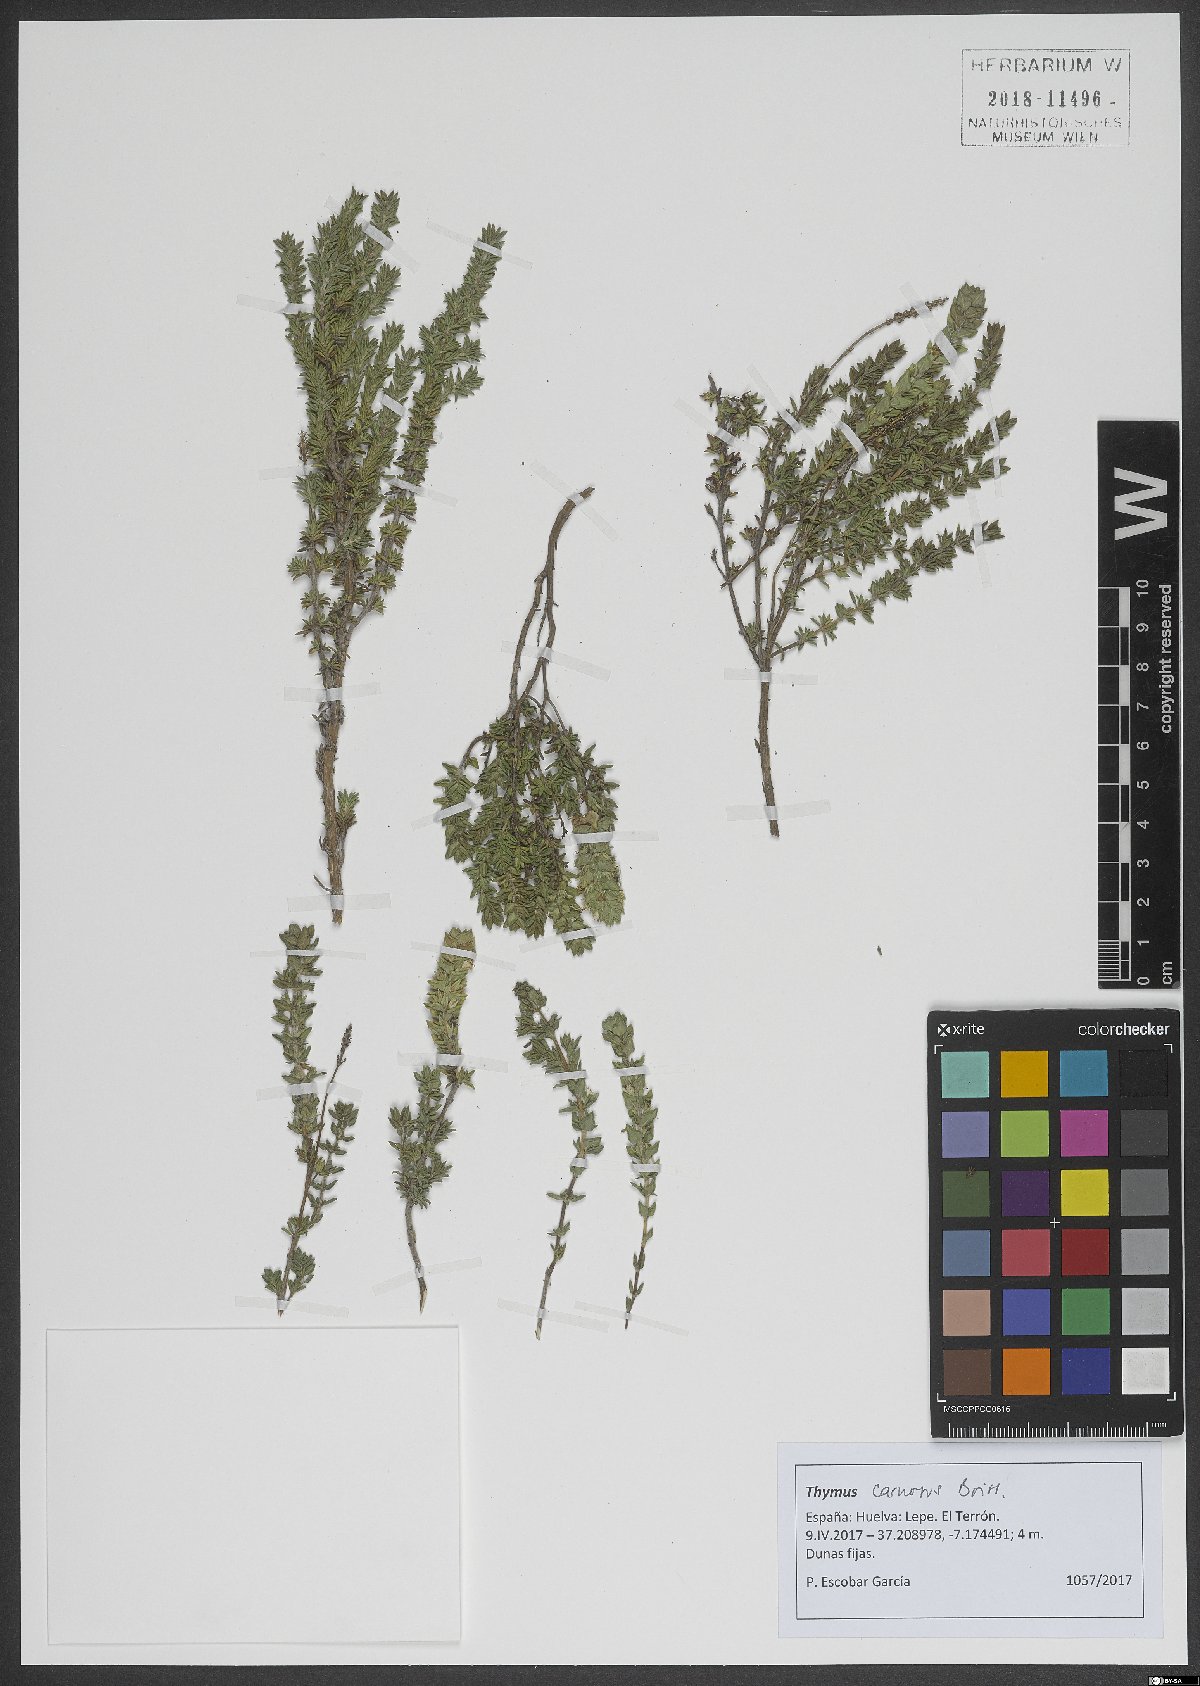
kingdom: Plantae
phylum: Tracheophyta
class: Magnoliopsida
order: Lamiales
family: Lamiaceae
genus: Thymus
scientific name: Thymus carnosus
